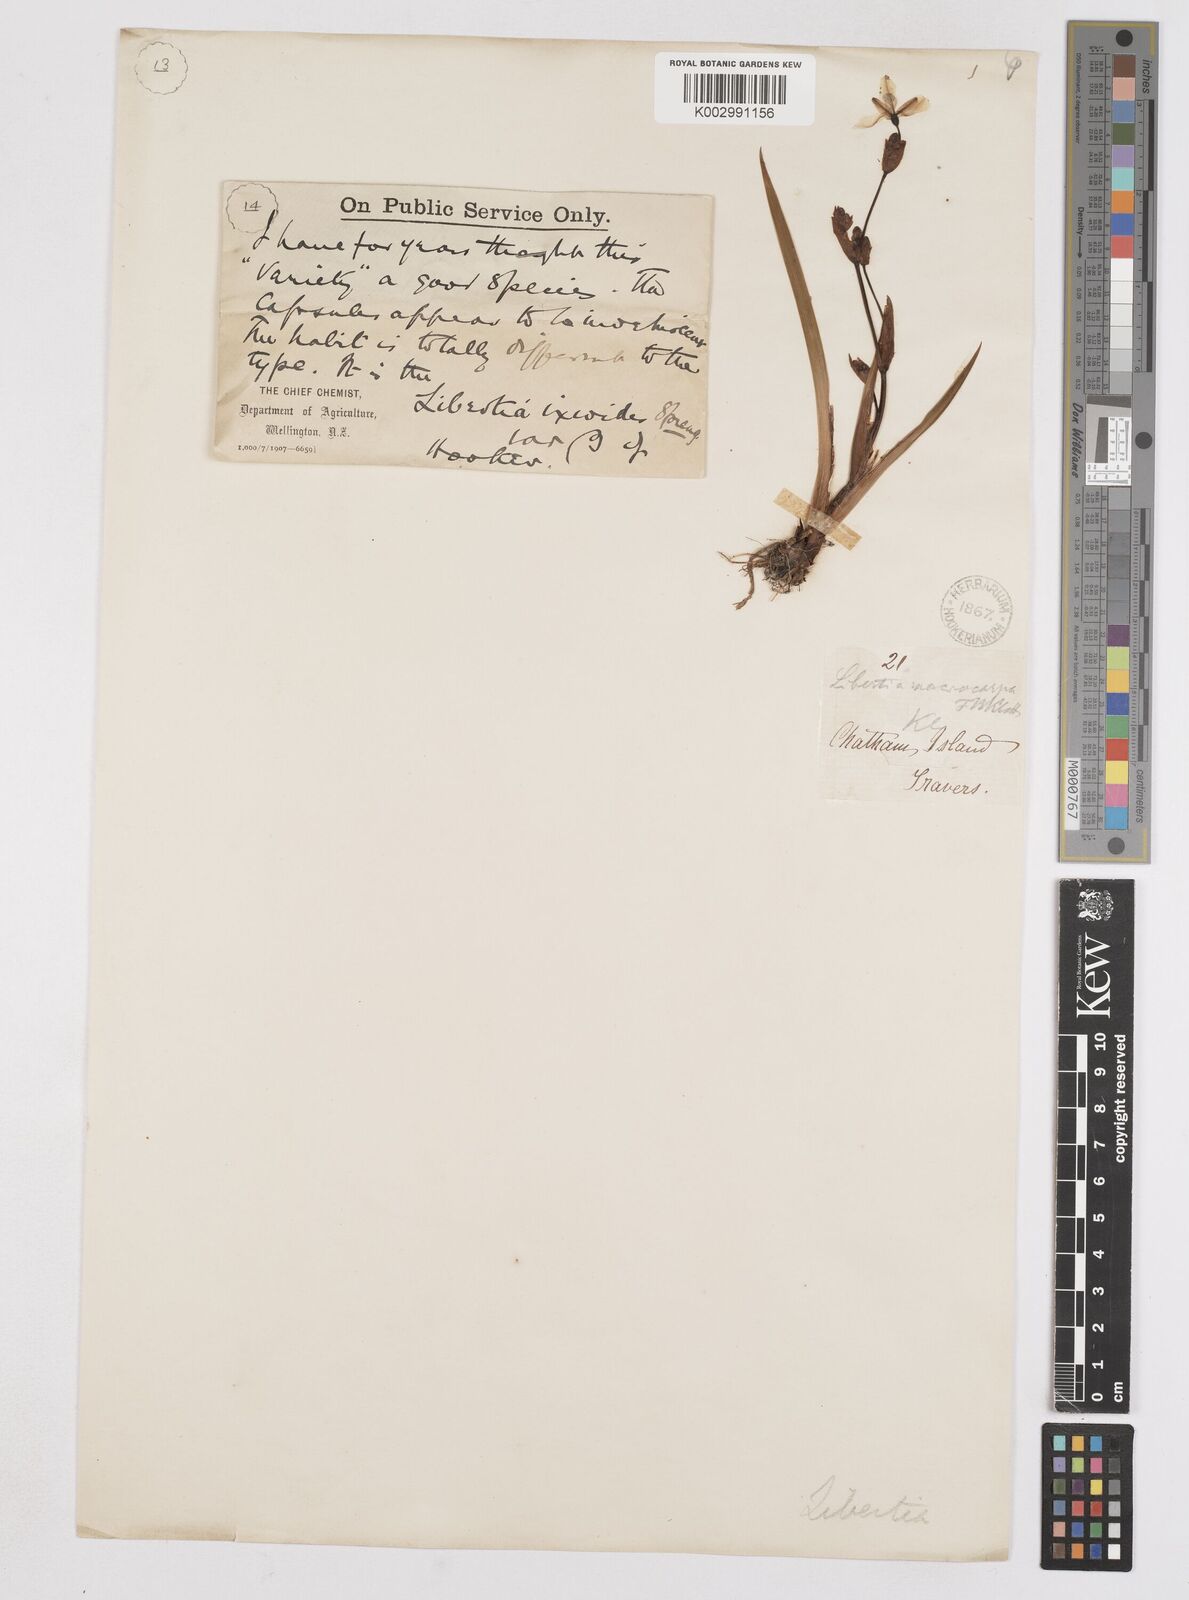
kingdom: Plantae
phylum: Tracheophyta
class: Liliopsida
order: Asparagales
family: Iridaceae
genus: Libertia
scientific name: Libertia peregrinans
